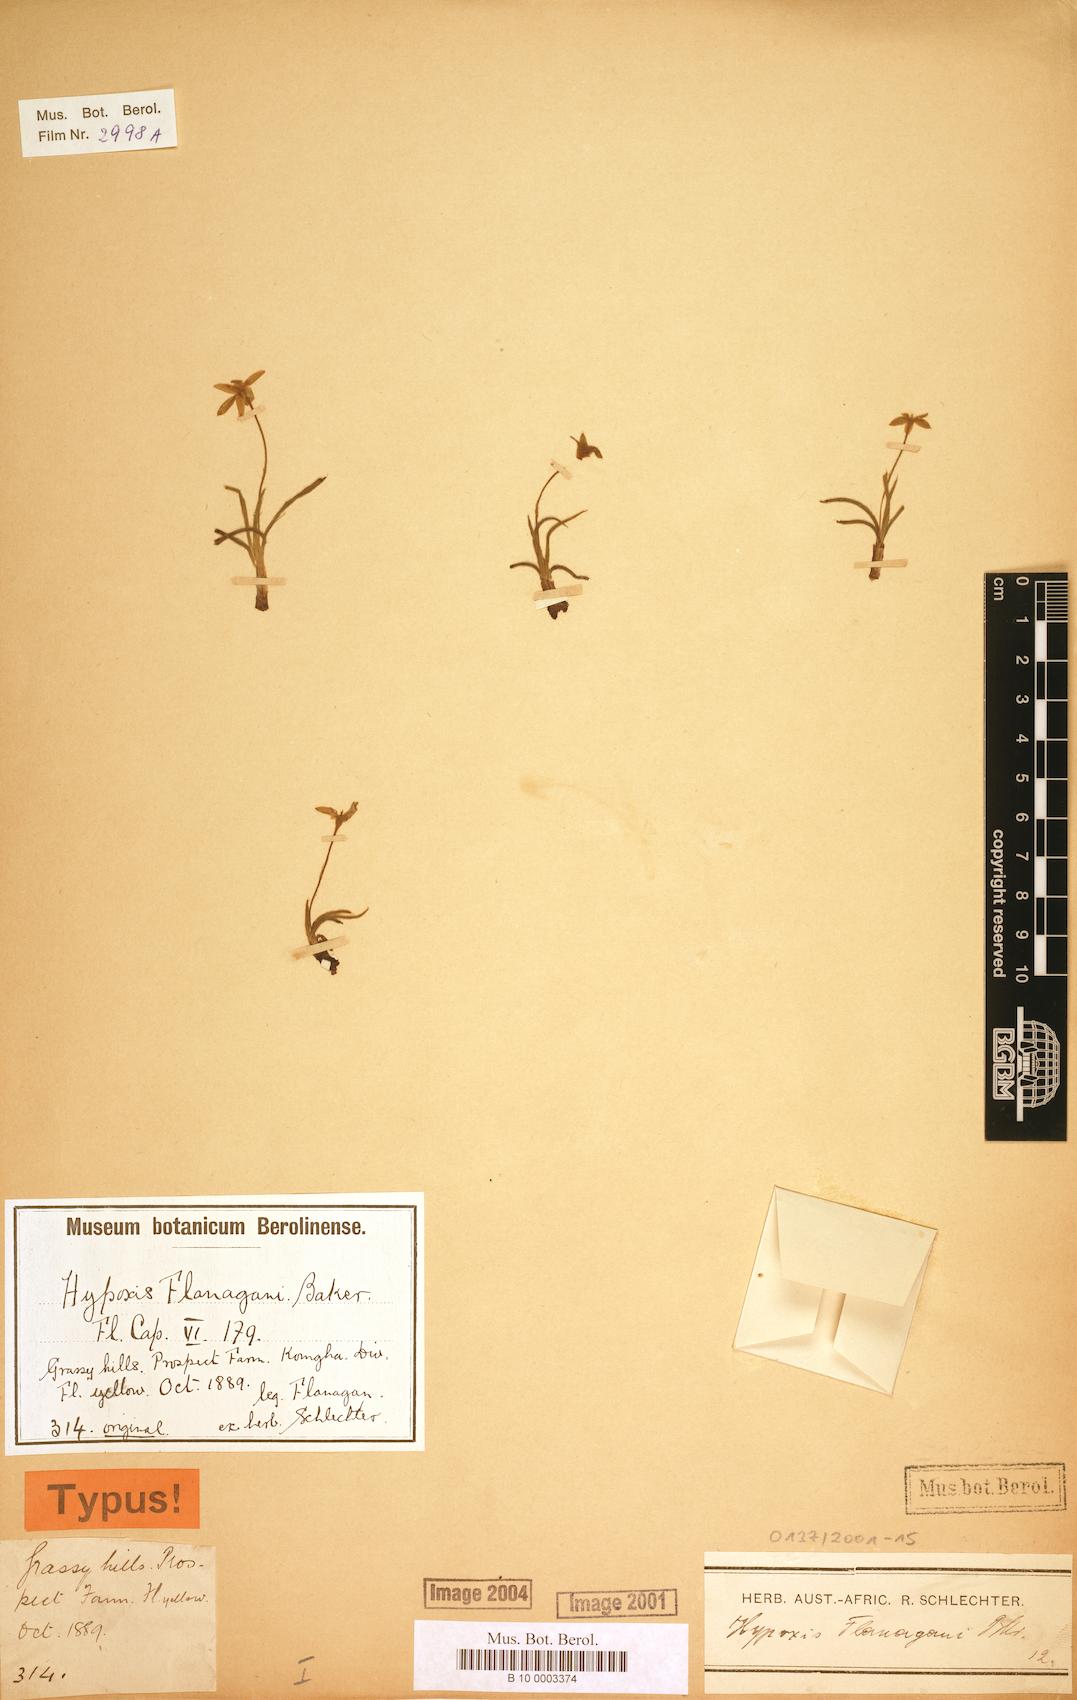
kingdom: Plantae
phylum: Tracheophyta
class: Liliopsida
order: Asparagales
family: Hypoxidaceae
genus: Hypoxis
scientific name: Hypoxis flanaganii
